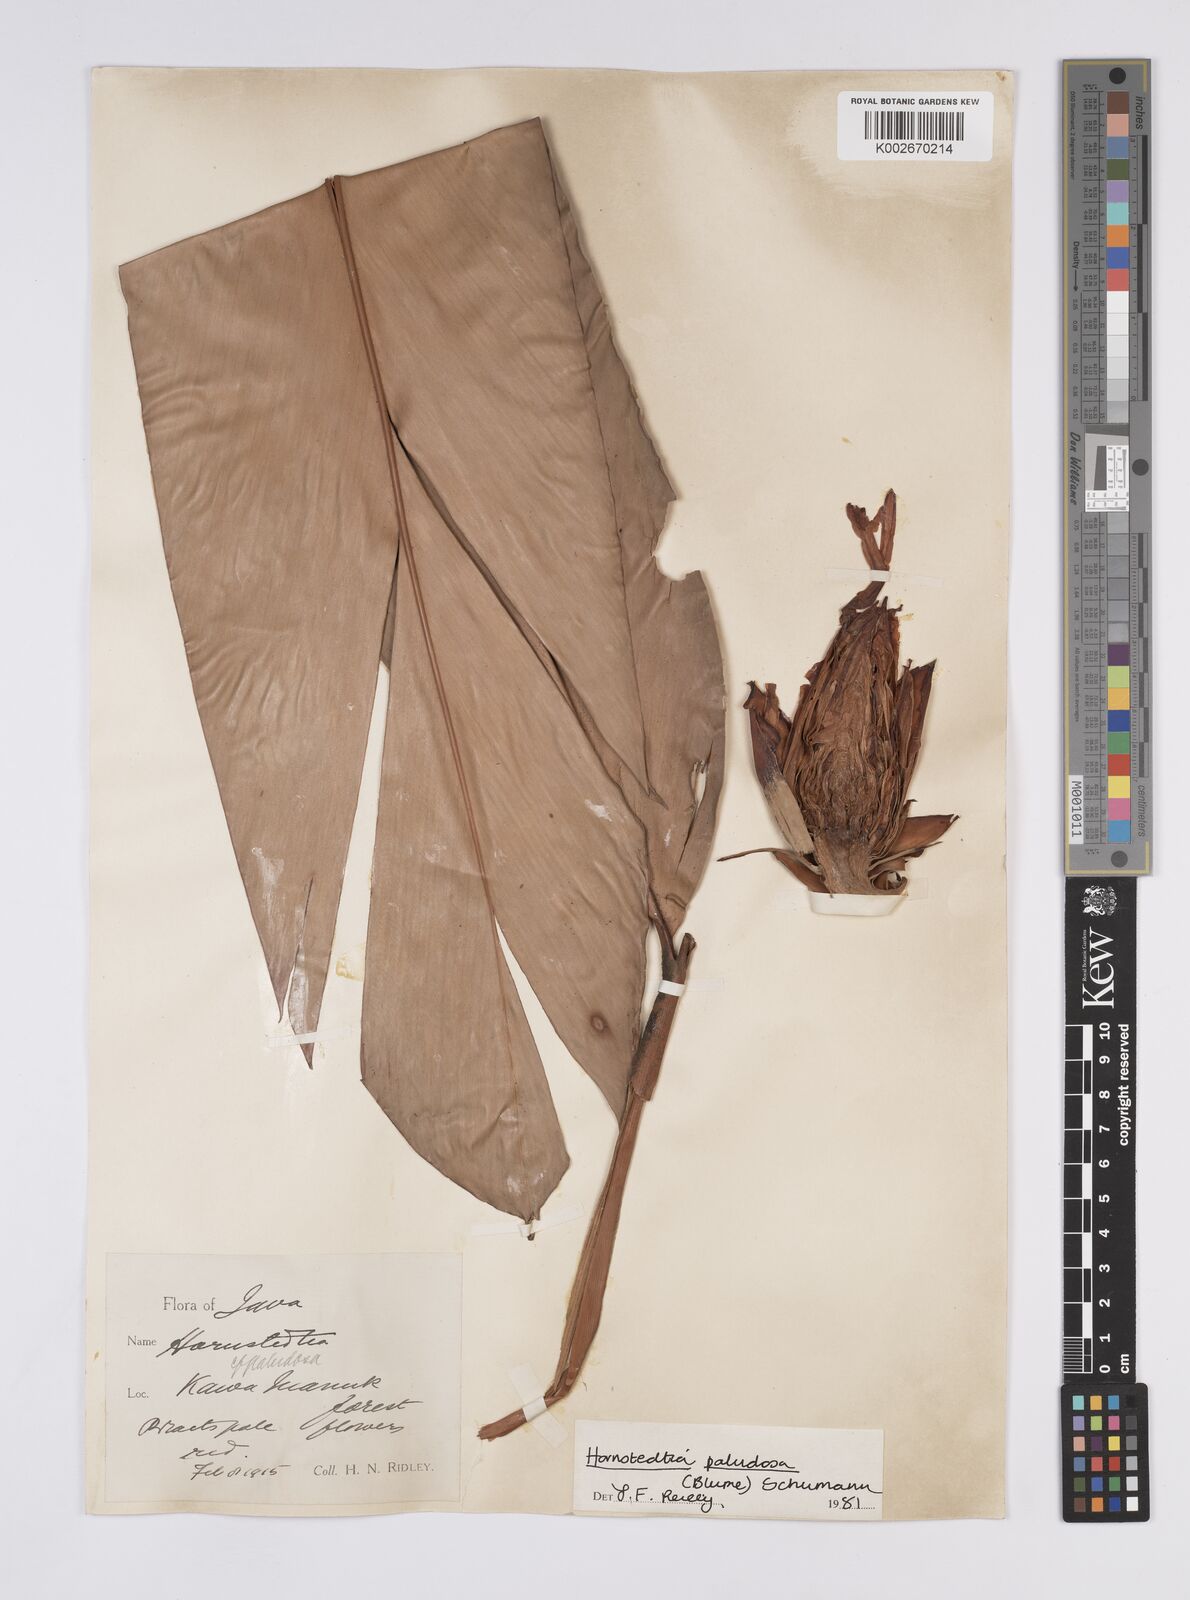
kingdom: Plantae
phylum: Tracheophyta
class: Liliopsida
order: Zingiberales
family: Zingiberaceae
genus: Hornstedtia
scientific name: Hornstedtia paludosa
